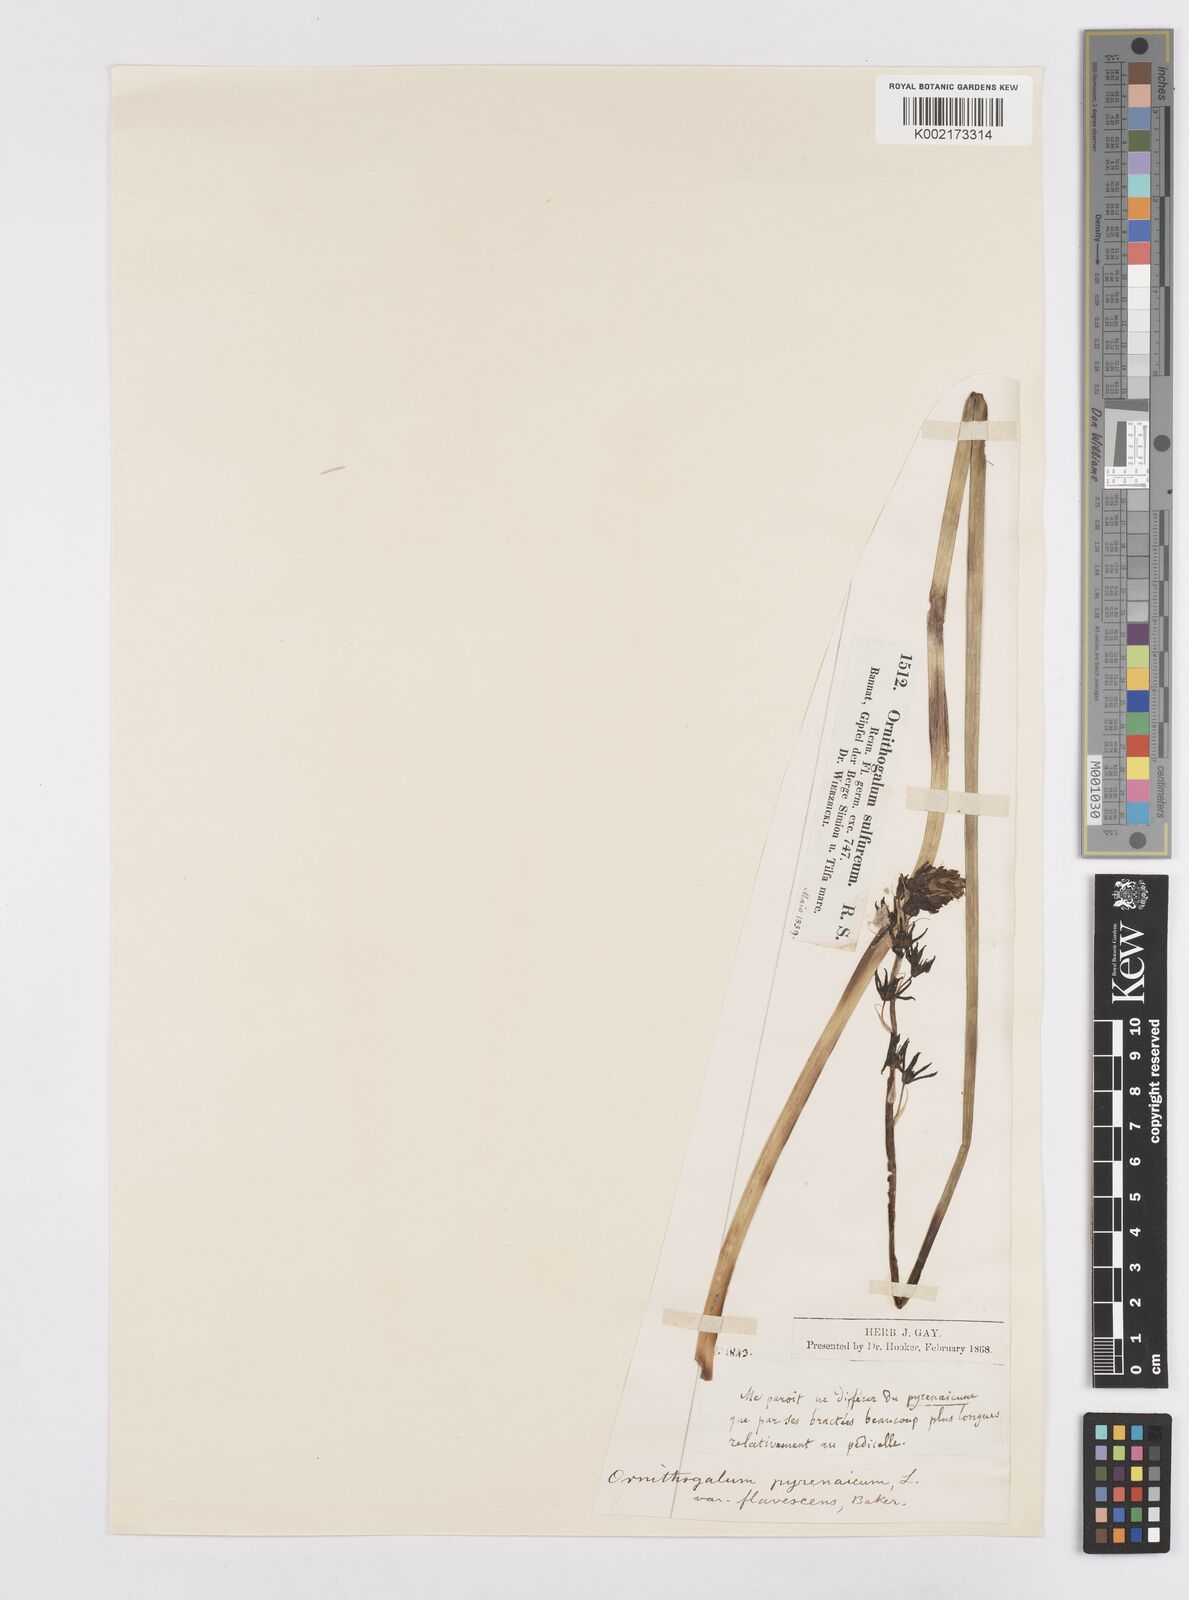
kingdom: Plantae
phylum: Tracheophyta
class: Liliopsida
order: Asparagales
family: Asparagaceae
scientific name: Asparagaceae
